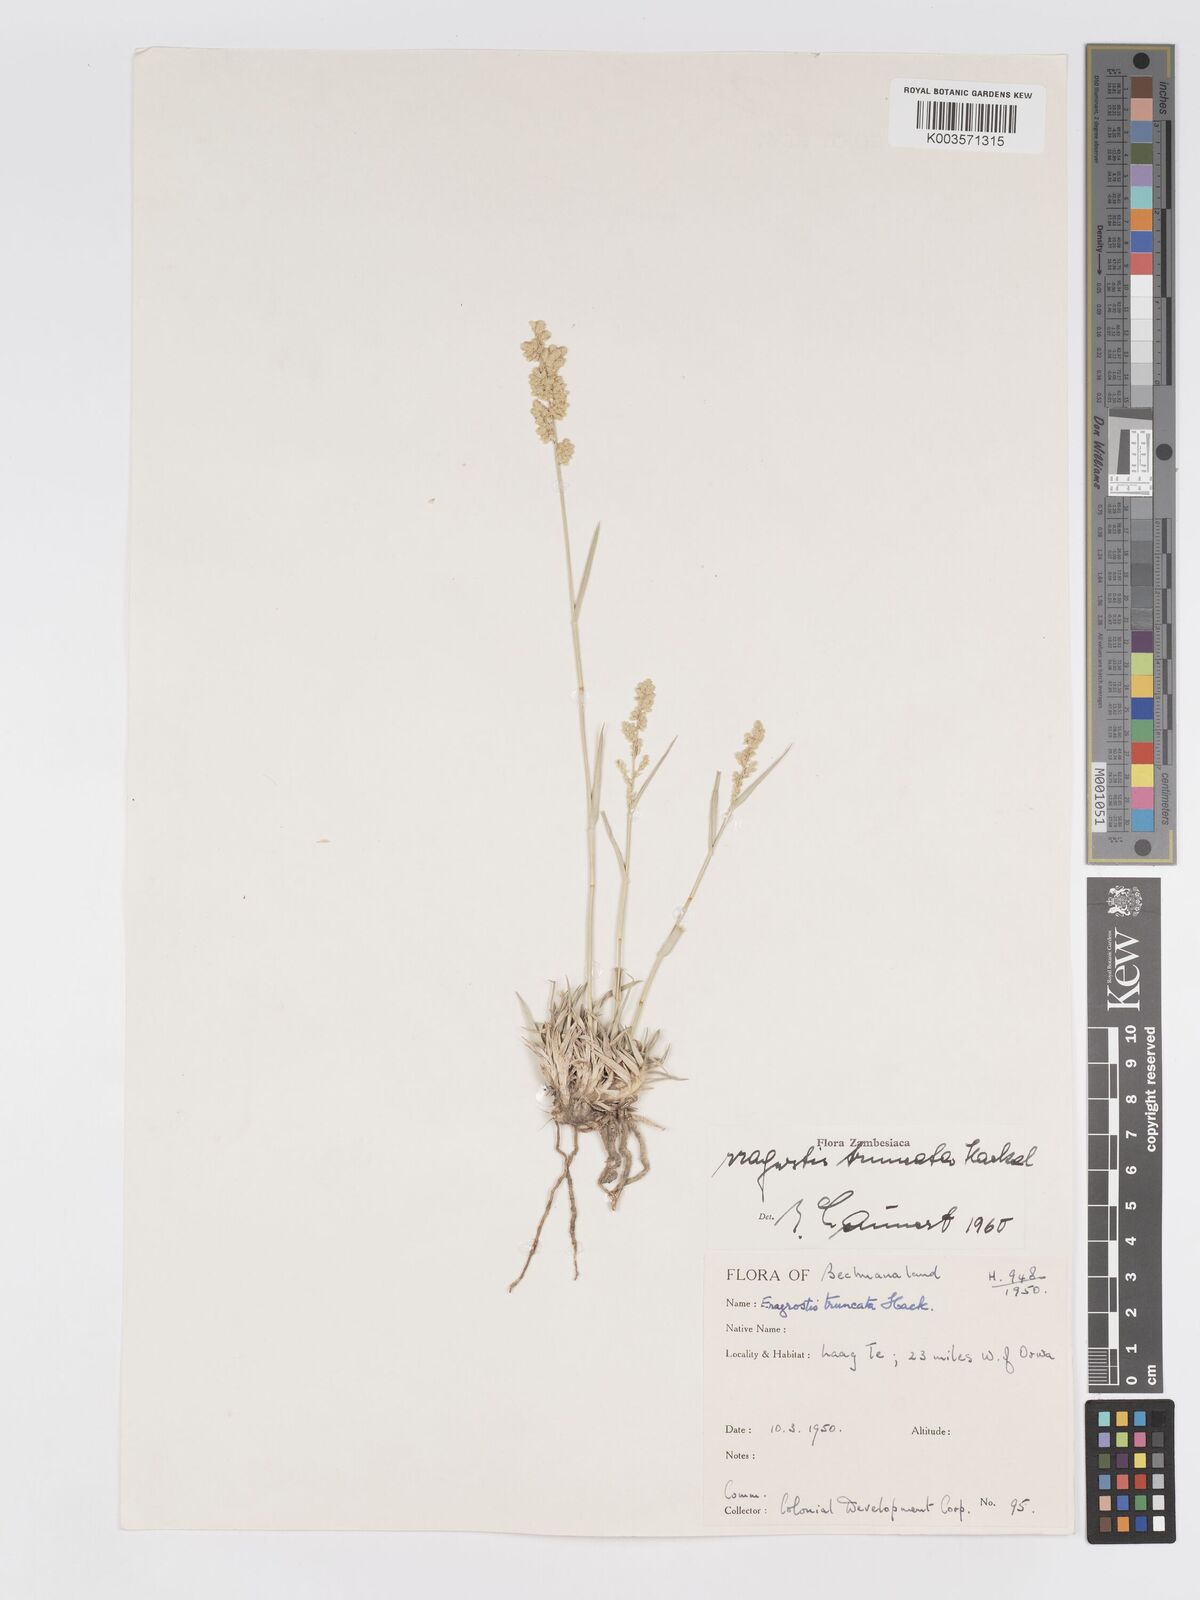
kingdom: Plantae
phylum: Tracheophyta
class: Liliopsida
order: Poales
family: Poaceae
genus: Eragrostis
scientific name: Eragrostis truncata
